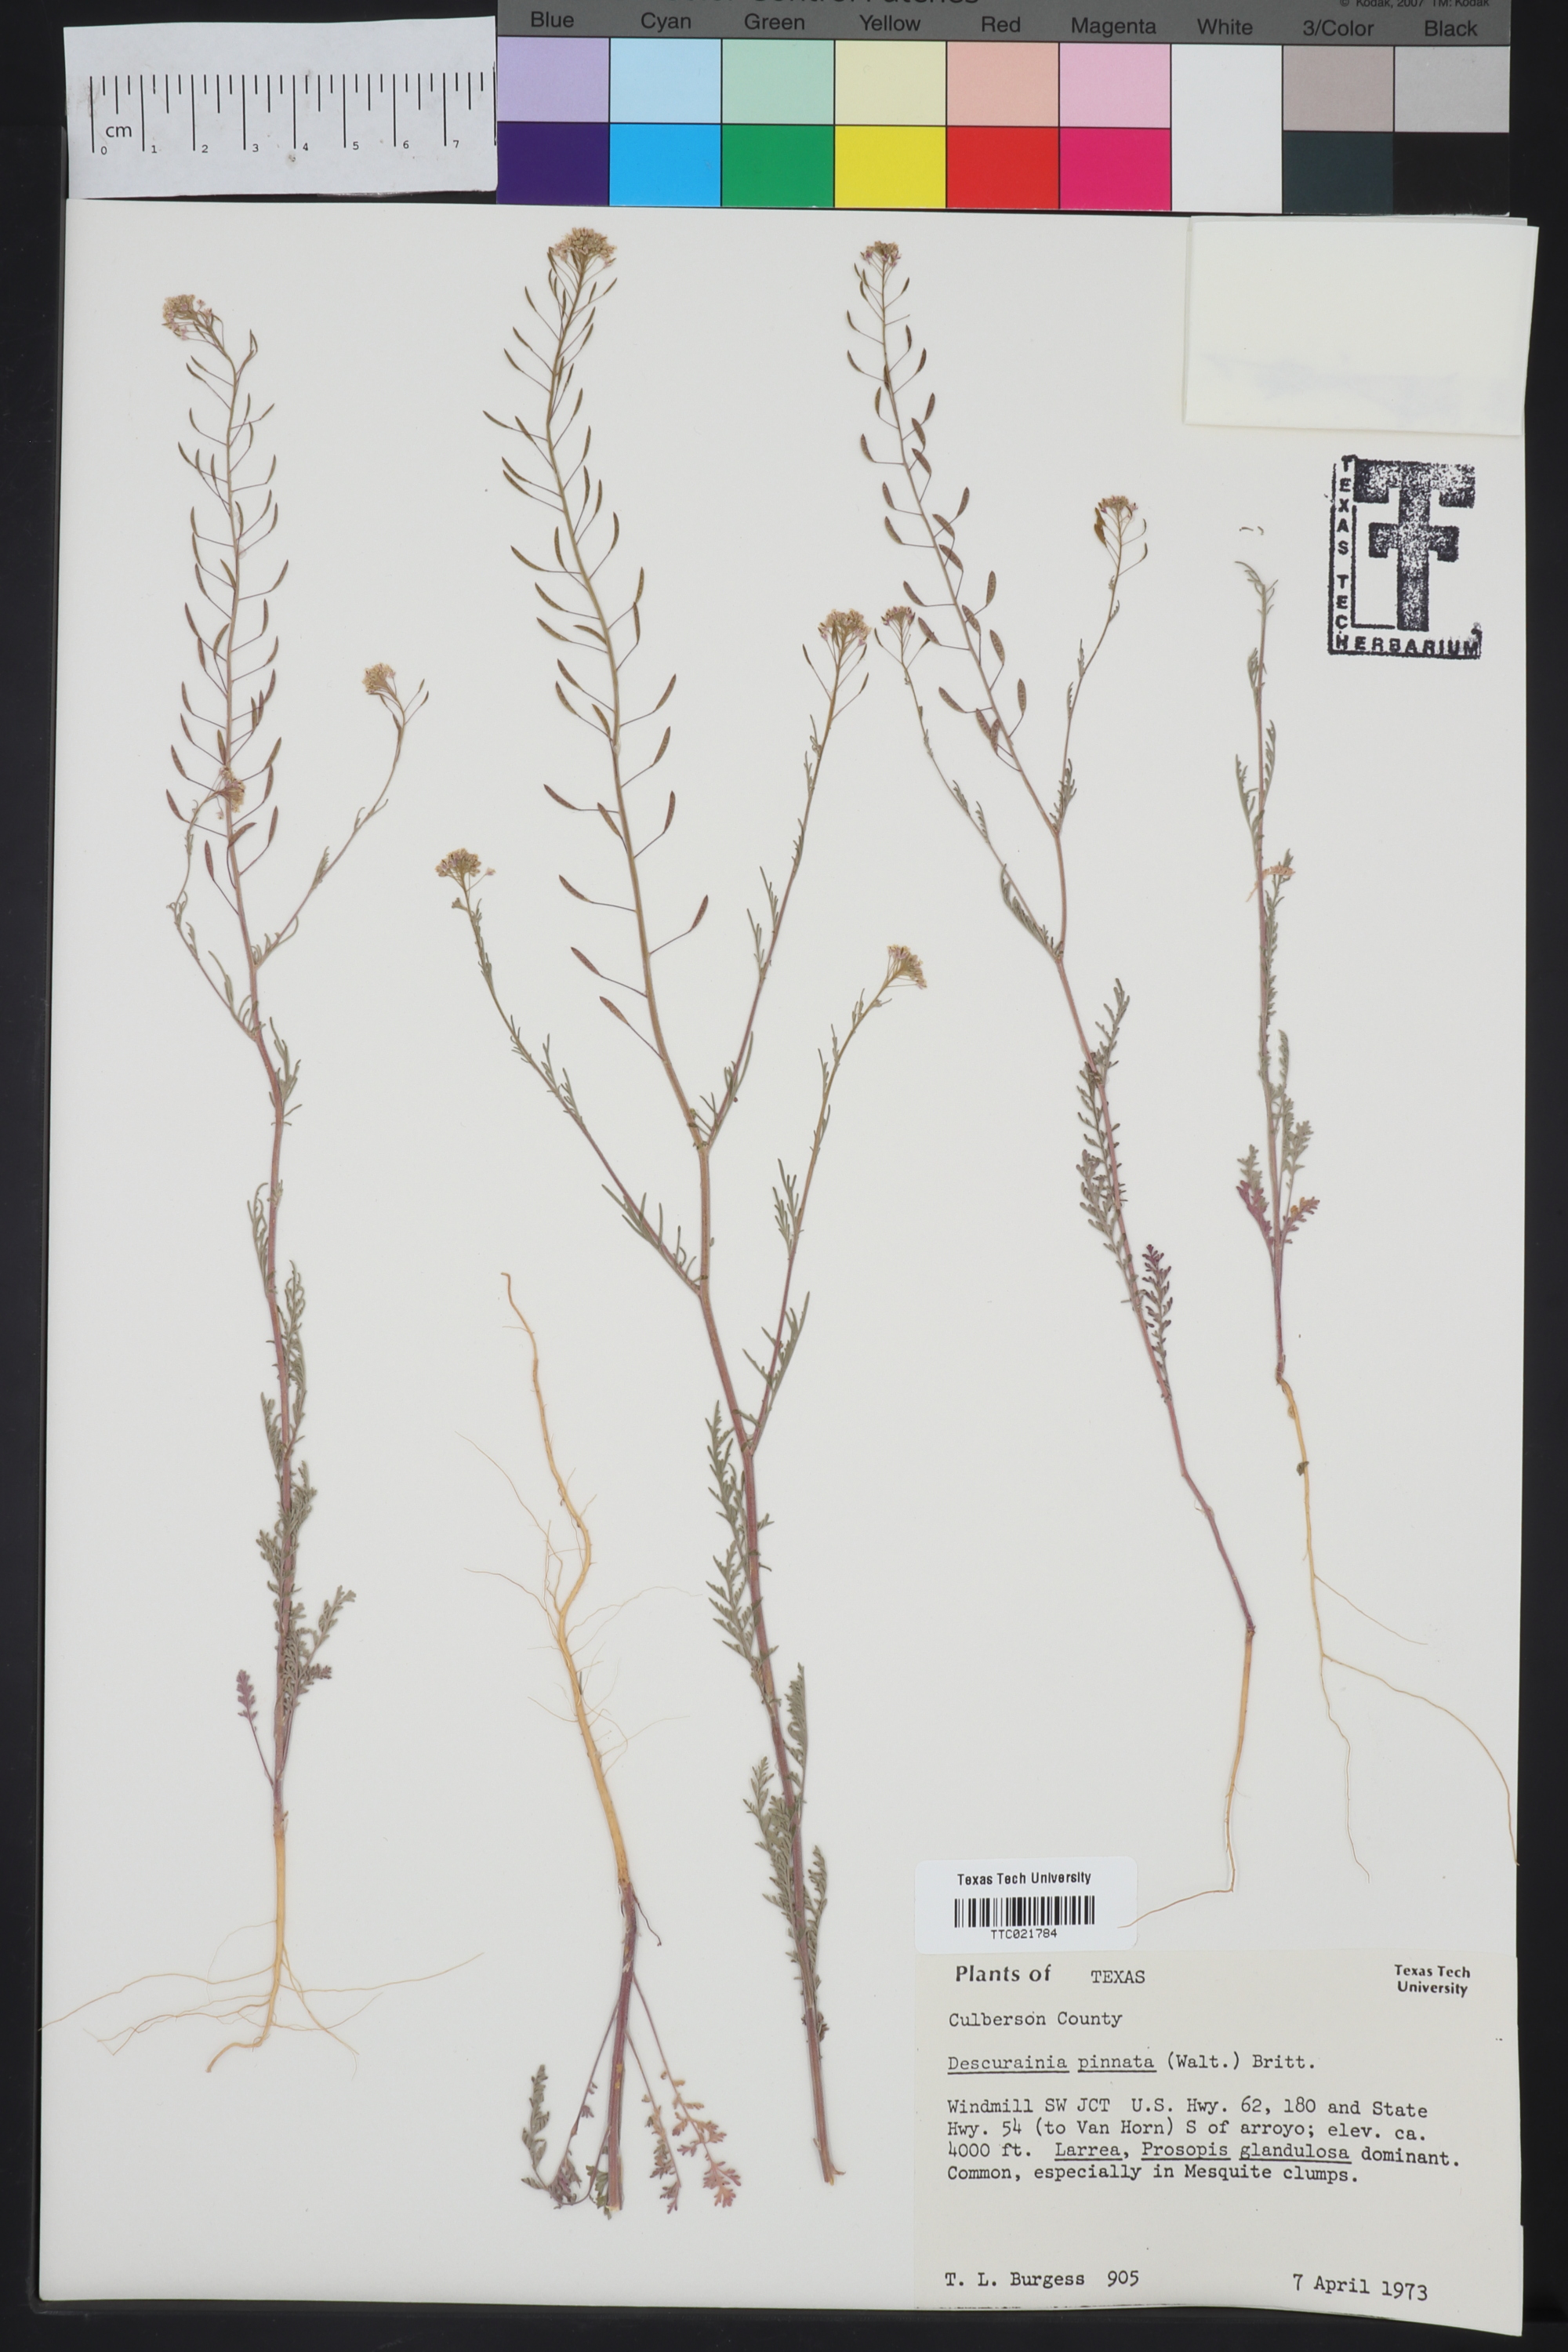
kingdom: Plantae
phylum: Tracheophyta
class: Magnoliopsida
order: Brassicales
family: Brassicaceae
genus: Descurainia
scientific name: Descurainia pinnata
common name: Western tansy mustard
